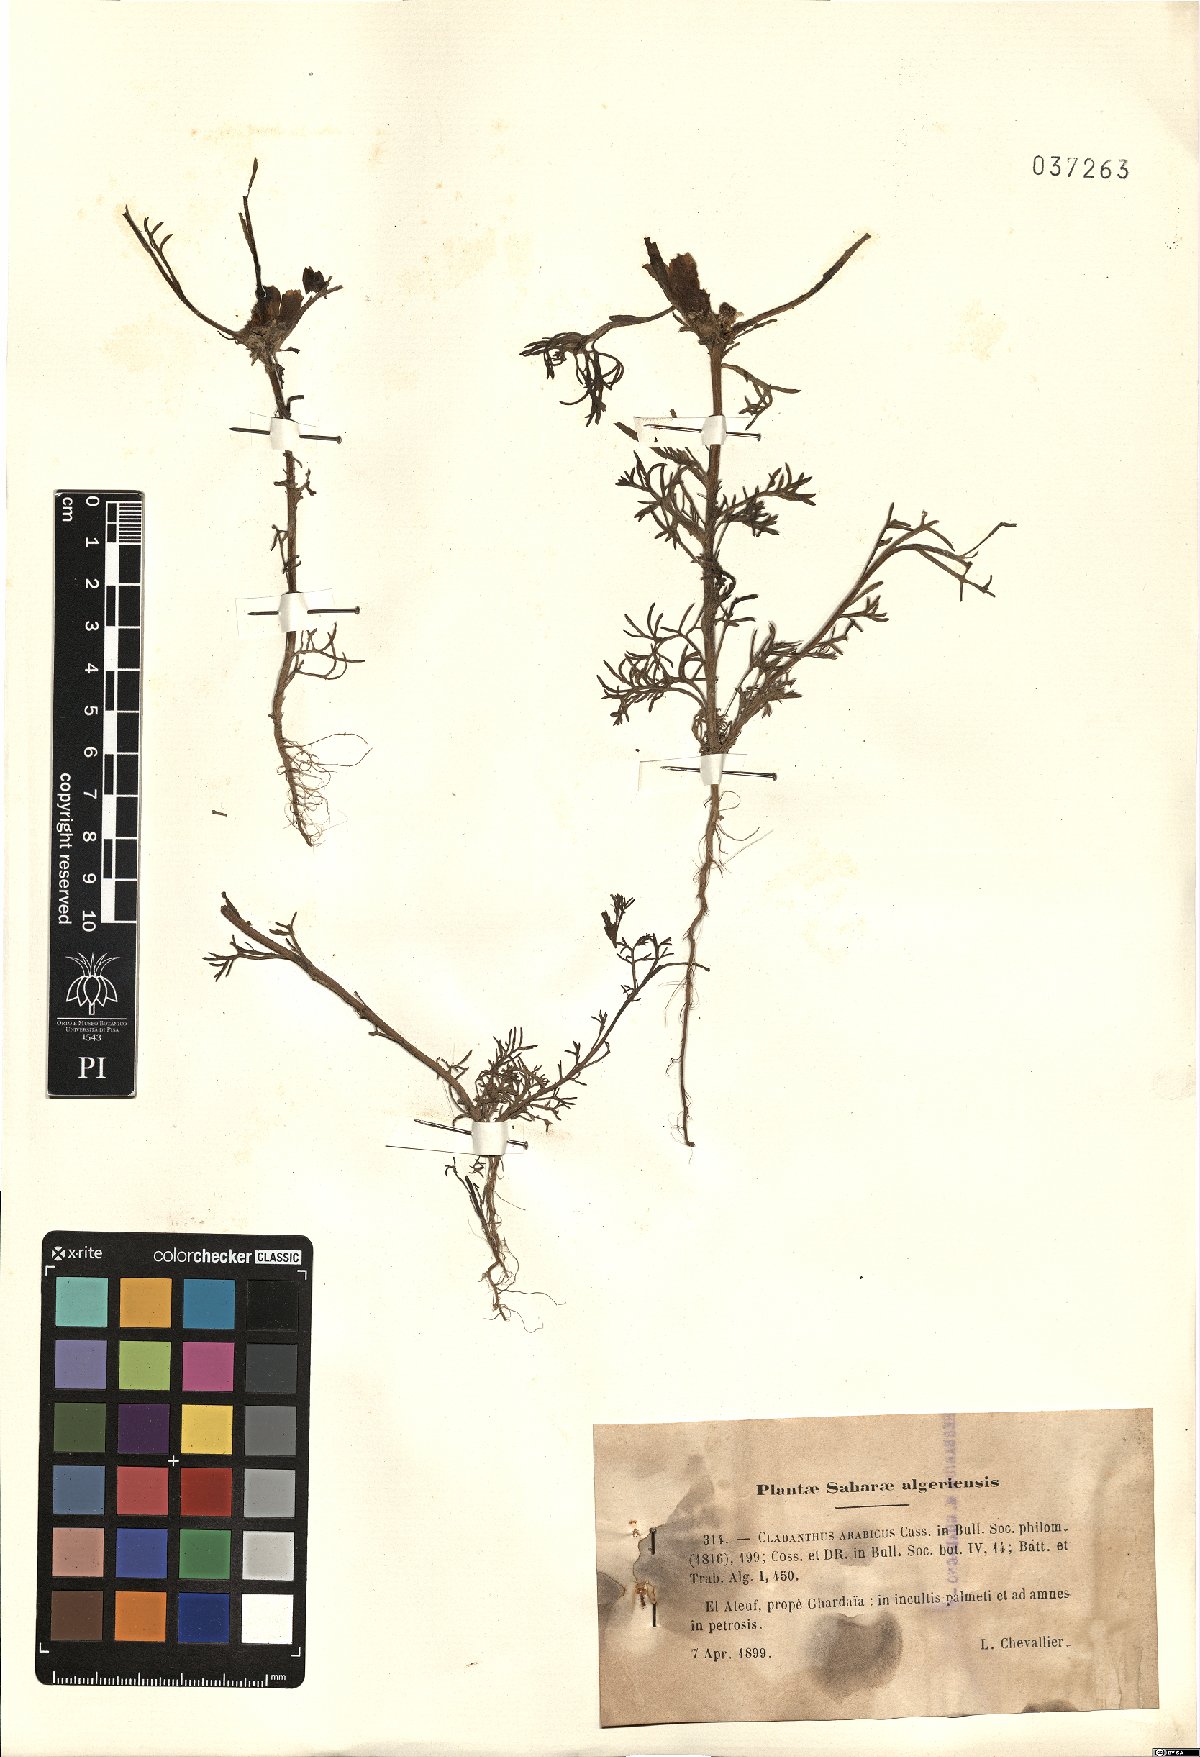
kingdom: Plantae
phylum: Tracheophyta
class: Magnoliopsida
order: Asterales
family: Asteraceae
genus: Cladanthus
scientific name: Cladanthus arabicus
